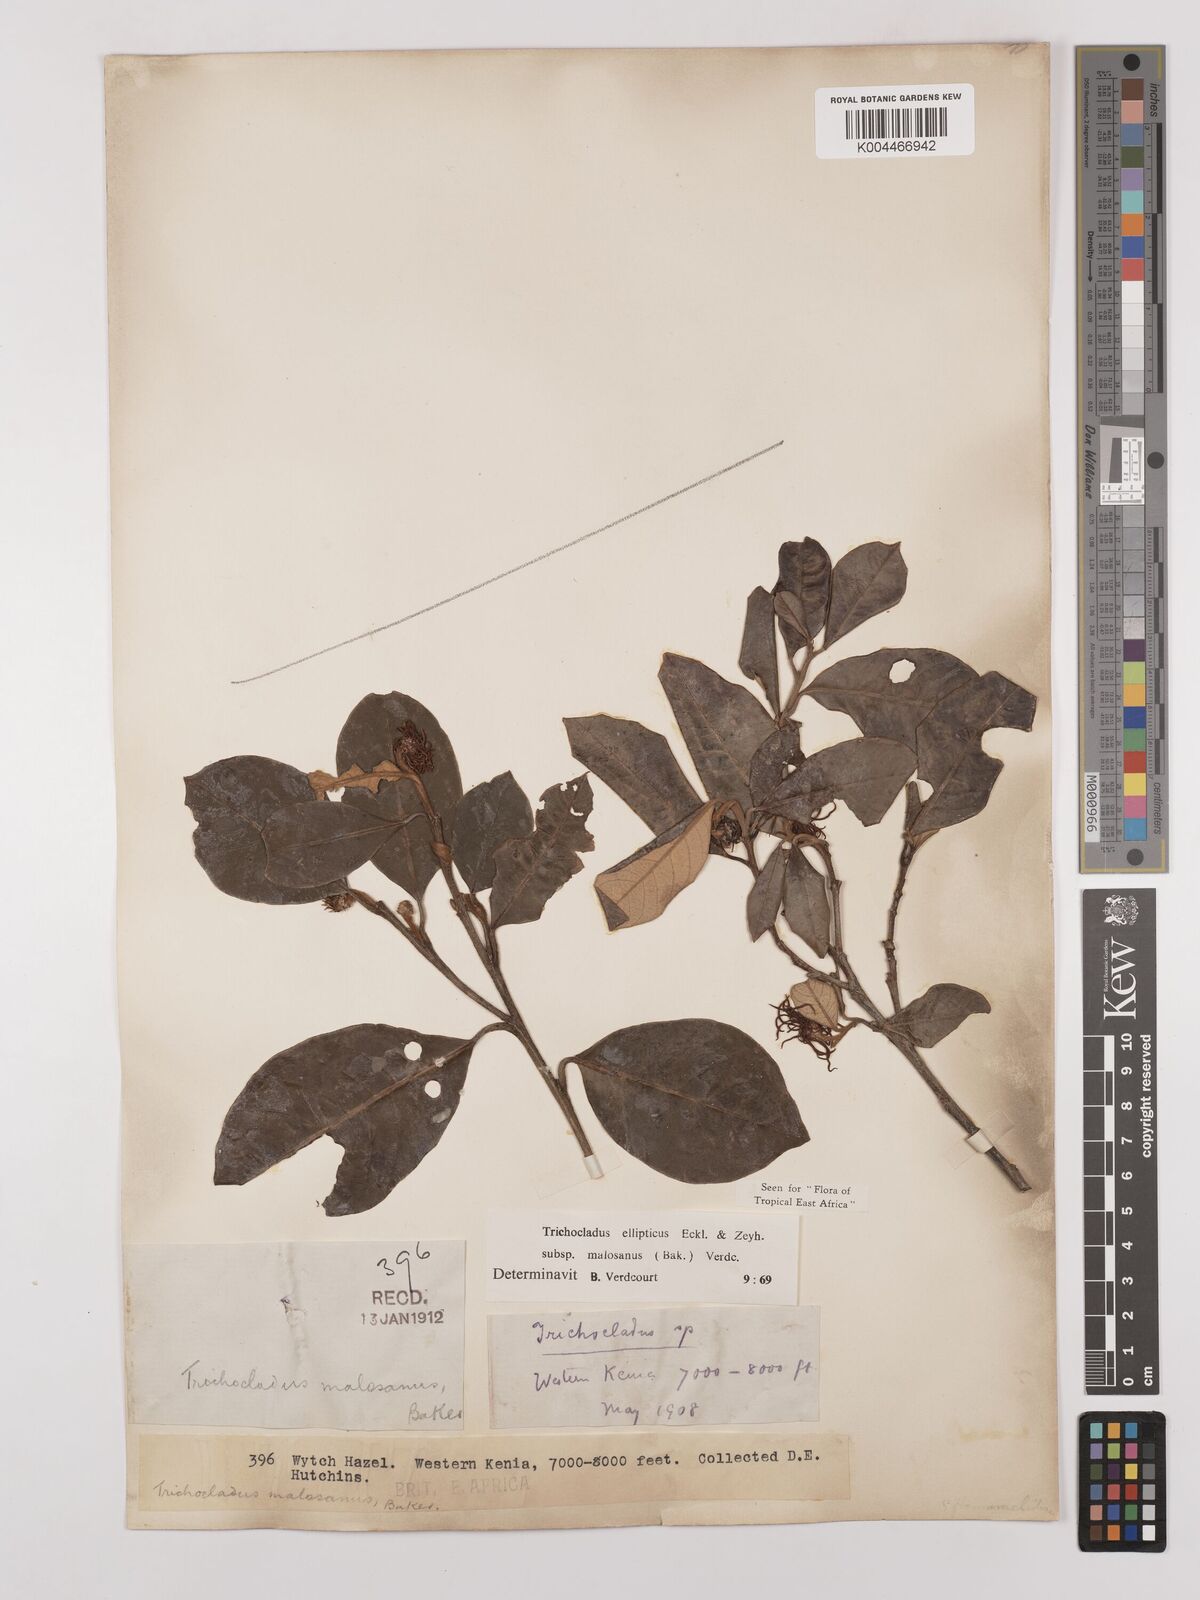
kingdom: Plantae
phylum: Tracheophyta
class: Magnoliopsida
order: Saxifragales
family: Hamamelidaceae
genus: Trichocladus
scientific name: Trichocladus ellipticus
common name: White witch-hazel
